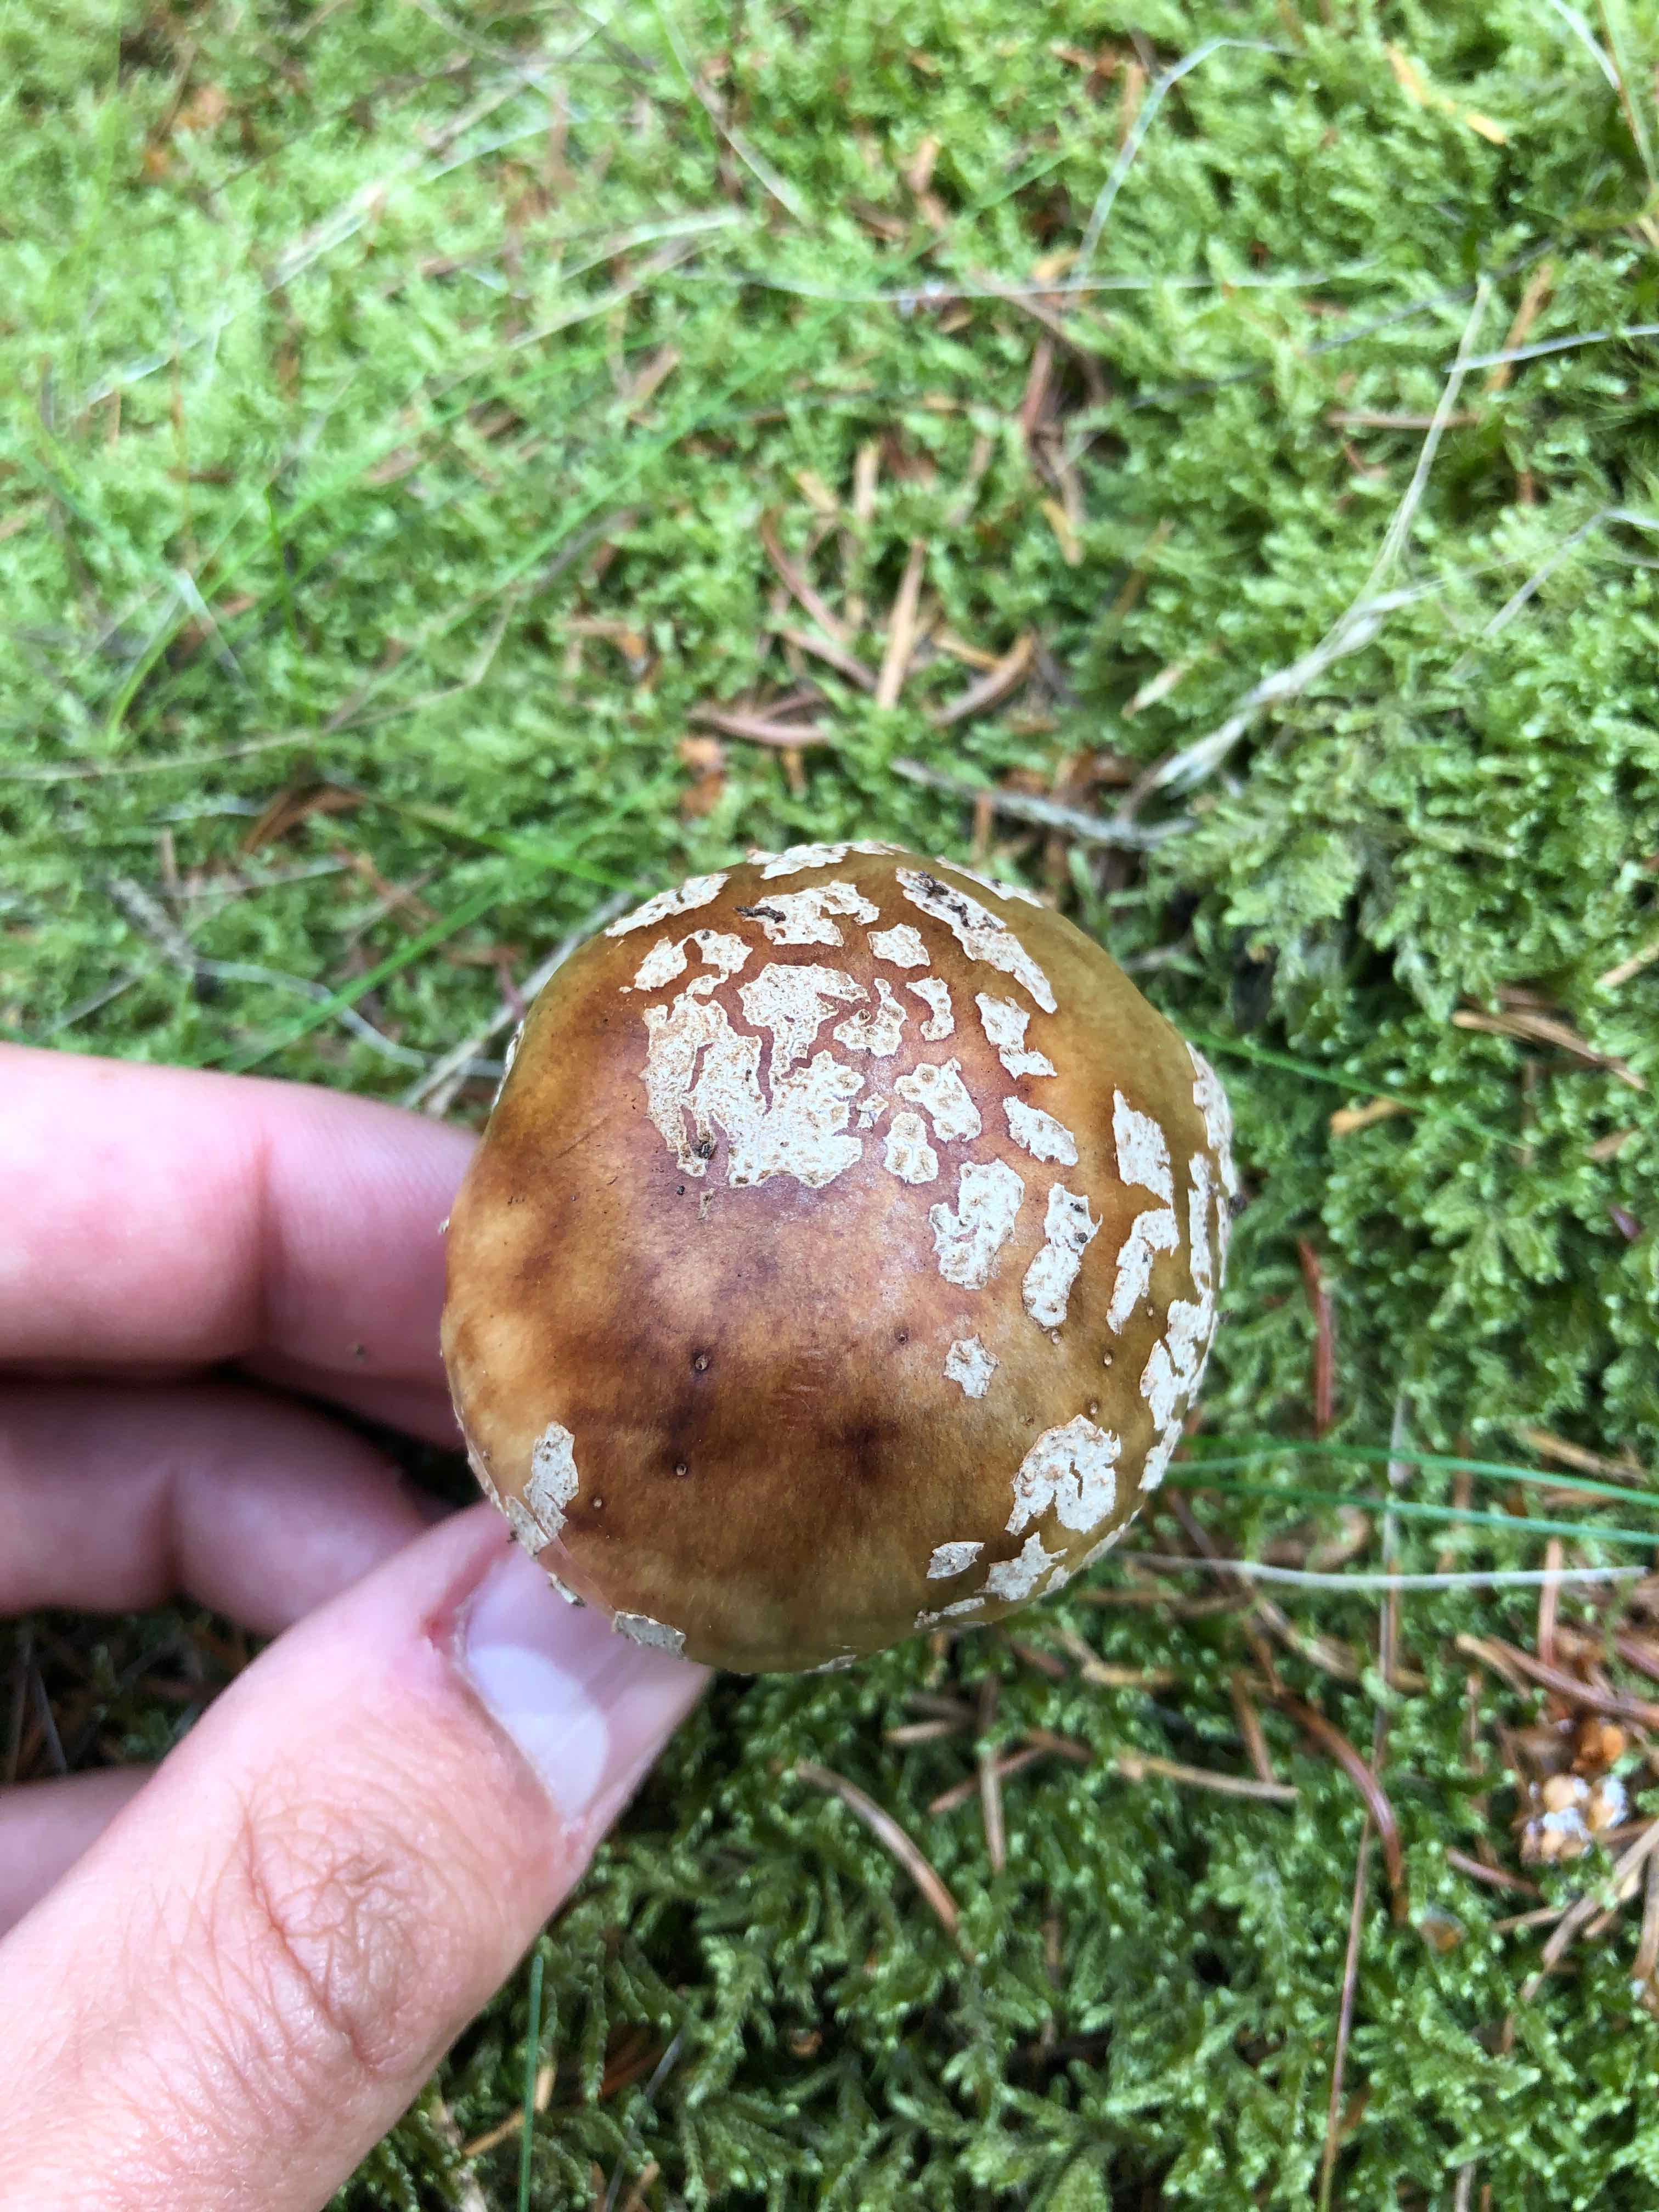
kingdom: Fungi
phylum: Basidiomycota
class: Agaricomycetes
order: Agaricales
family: Amanitaceae
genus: Amanita
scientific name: Amanita rubescens
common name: rødmende fluesvamp
